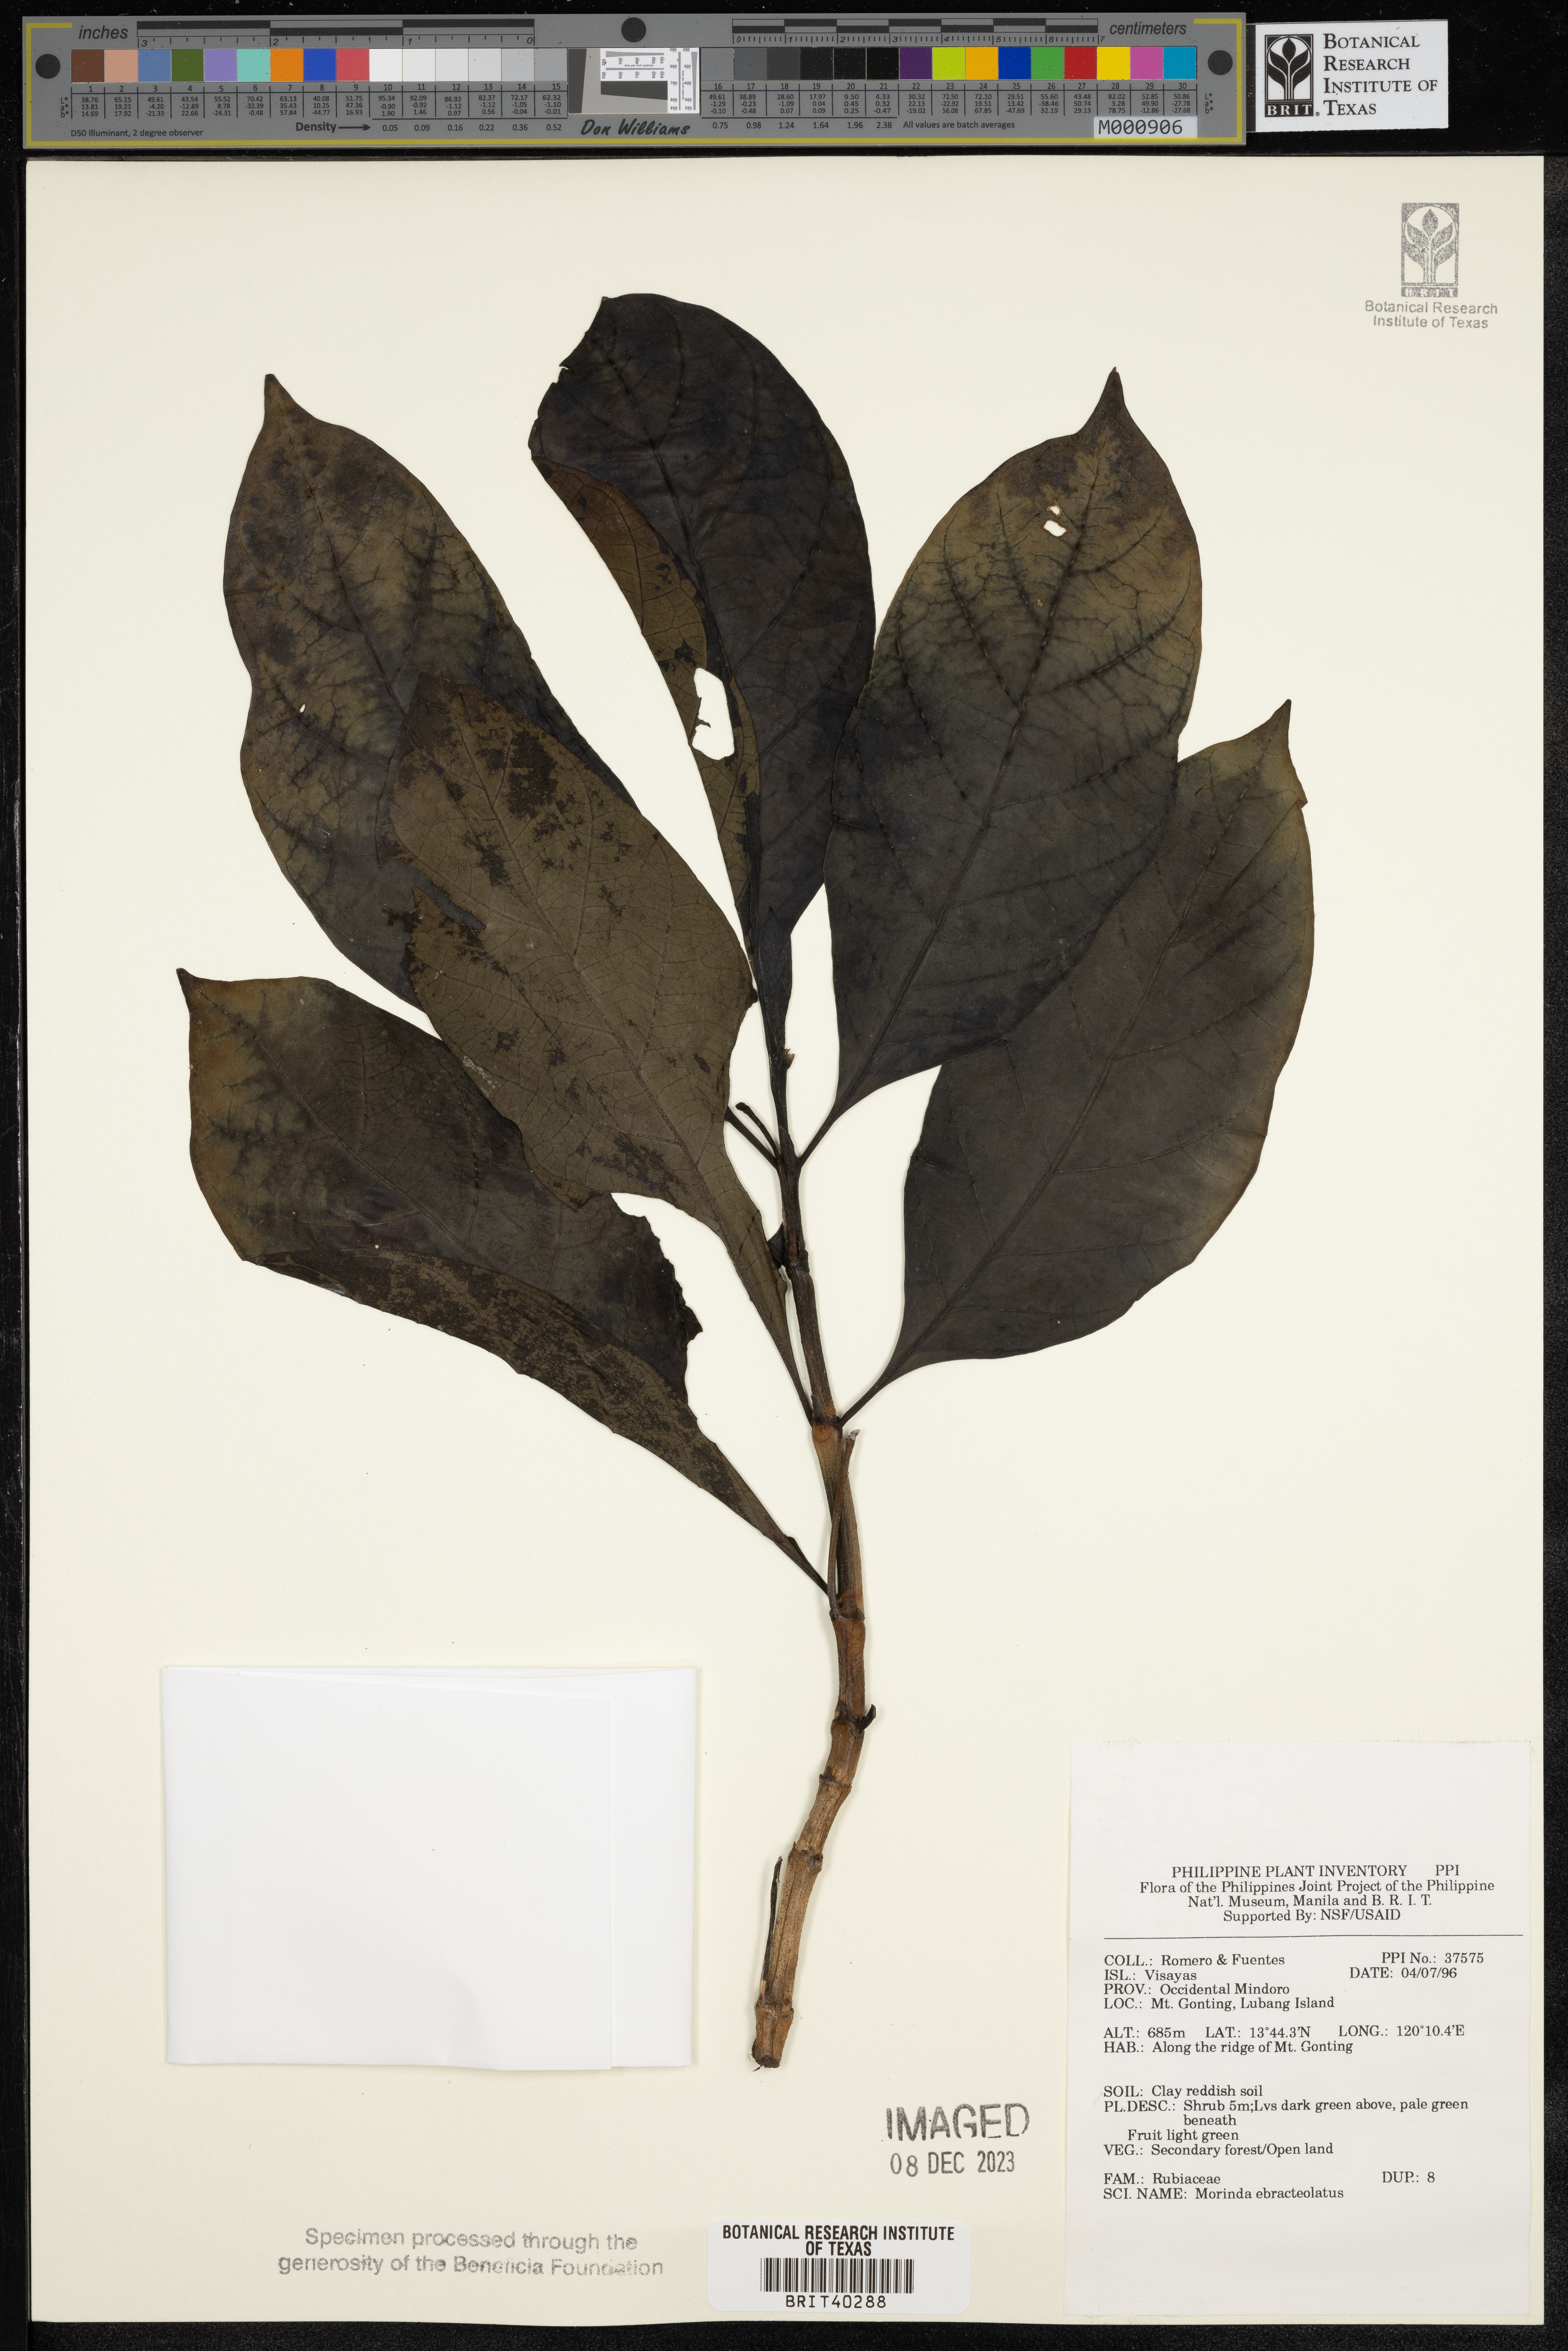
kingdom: Plantae
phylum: Tracheophyta
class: Magnoliopsida
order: Gentianales
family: Rubiaceae
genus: Morinda
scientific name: Morinda
